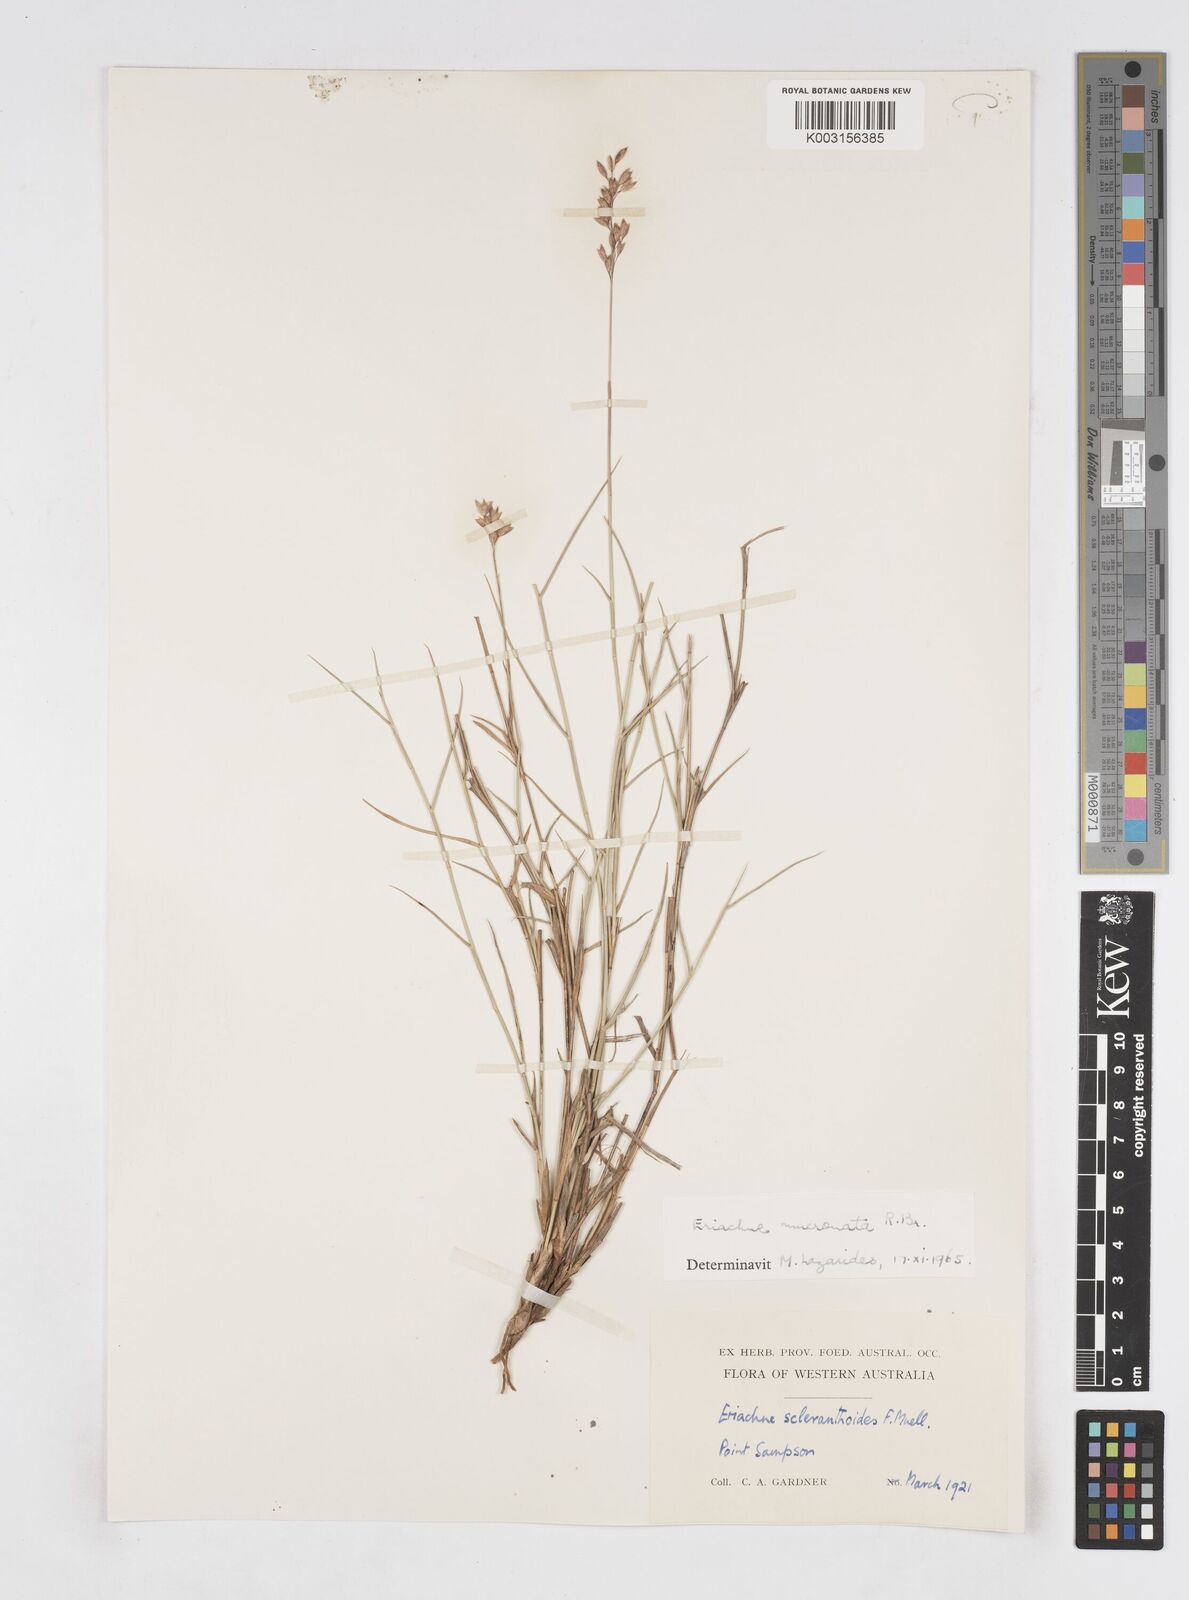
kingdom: Plantae
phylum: Tracheophyta
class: Liliopsida
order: Poales
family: Poaceae
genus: Eriachne
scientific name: Eriachne mucronata
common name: Mountain wanderrie grass
